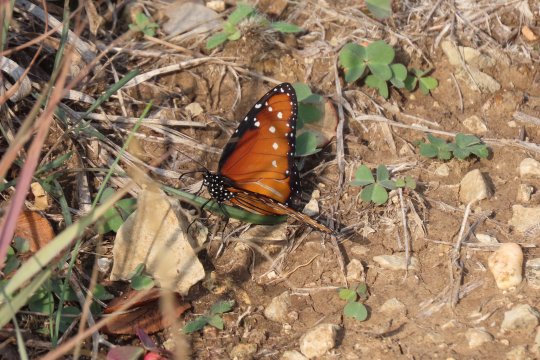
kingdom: Animalia
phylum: Arthropoda
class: Insecta
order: Lepidoptera
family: Nymphalidae
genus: Danaus
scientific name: Danaus gilippus
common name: Queen
